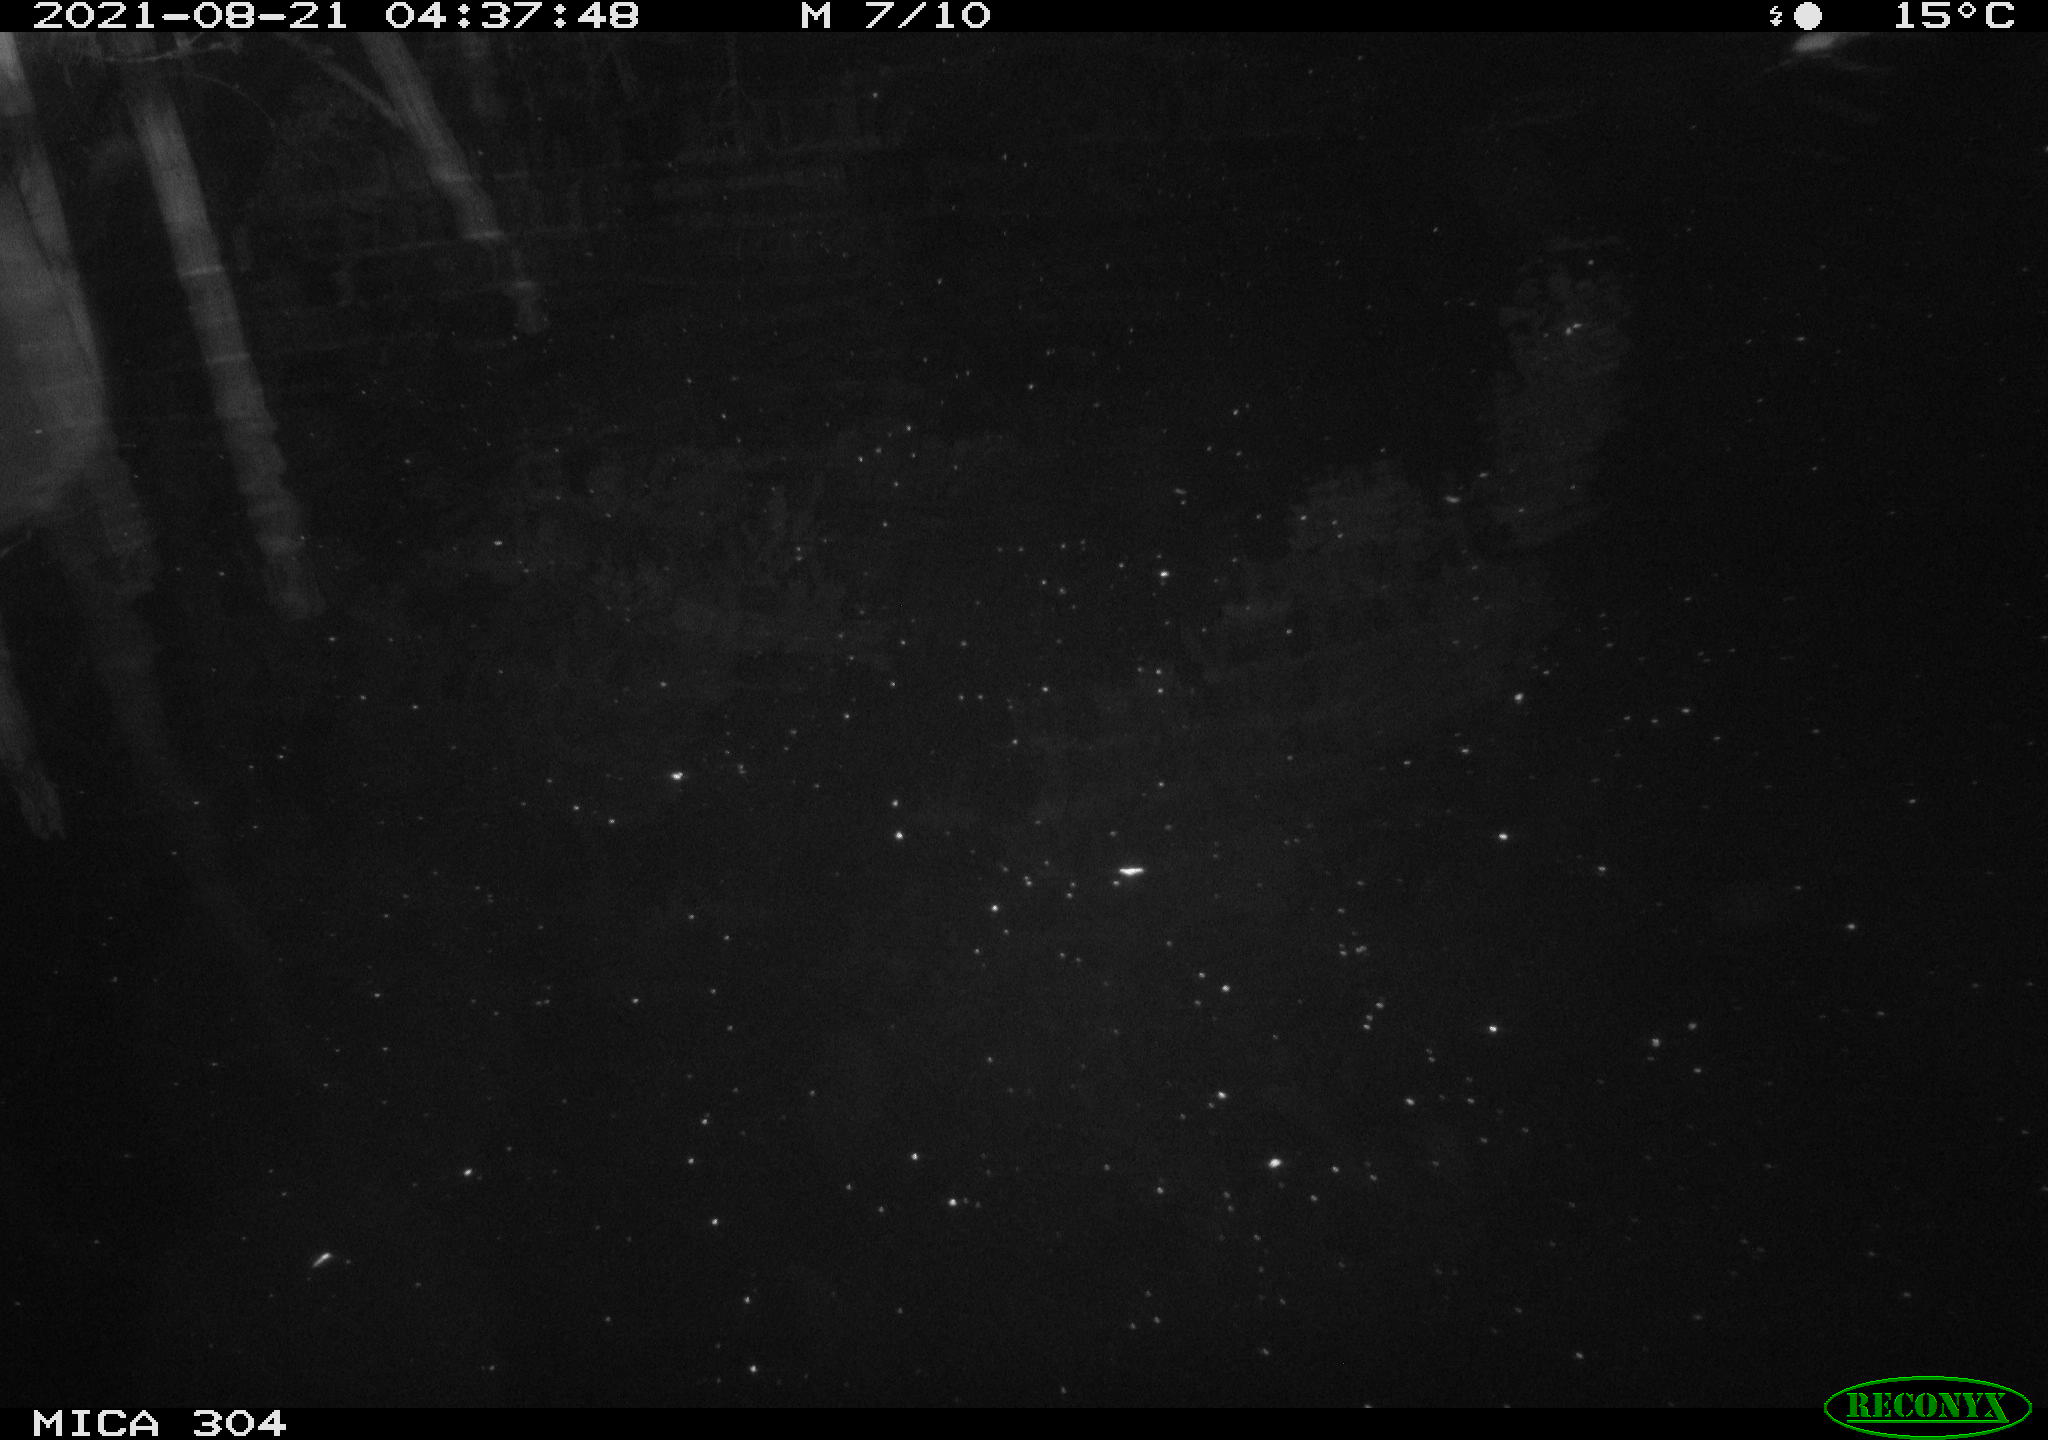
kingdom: Animalia
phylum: Chordata
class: Mammalia
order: Rodentia
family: Muridae
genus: Rattus
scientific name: Rattus norvegicus
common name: Brown rat
